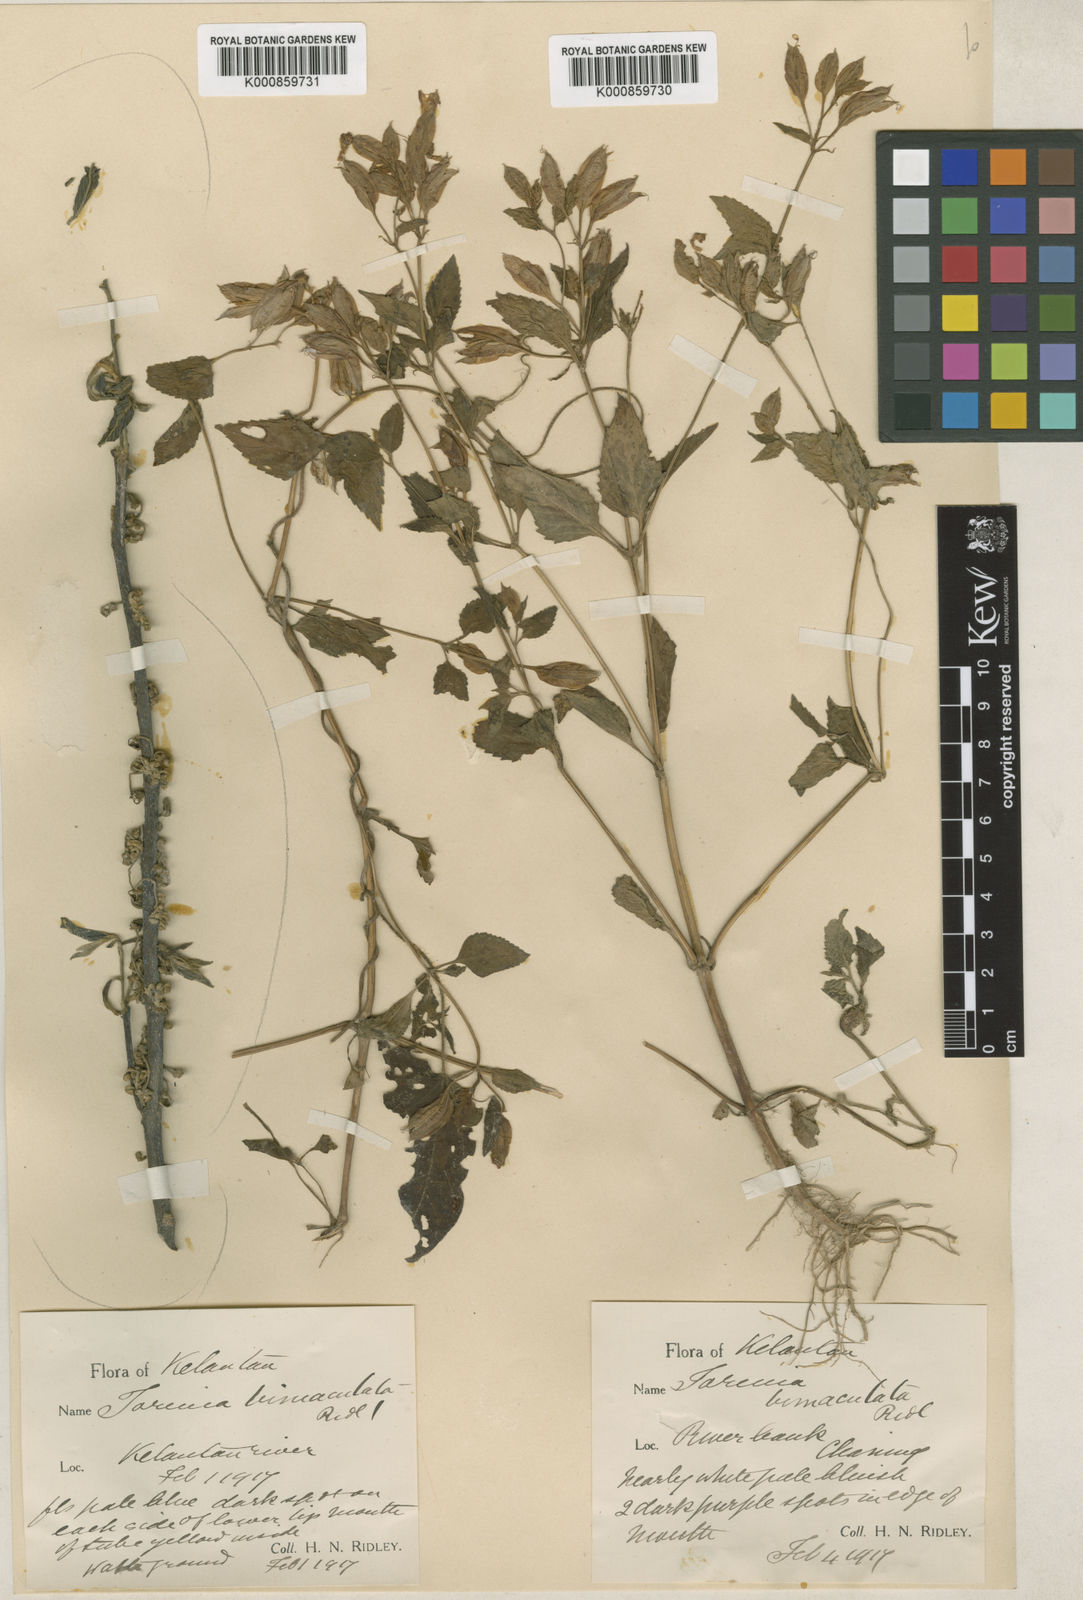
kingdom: Plantae
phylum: Tracheophyta
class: Magnoliopsida
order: Lamiales
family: Linderniaceae
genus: Torenia
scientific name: Torenia bimaculata
